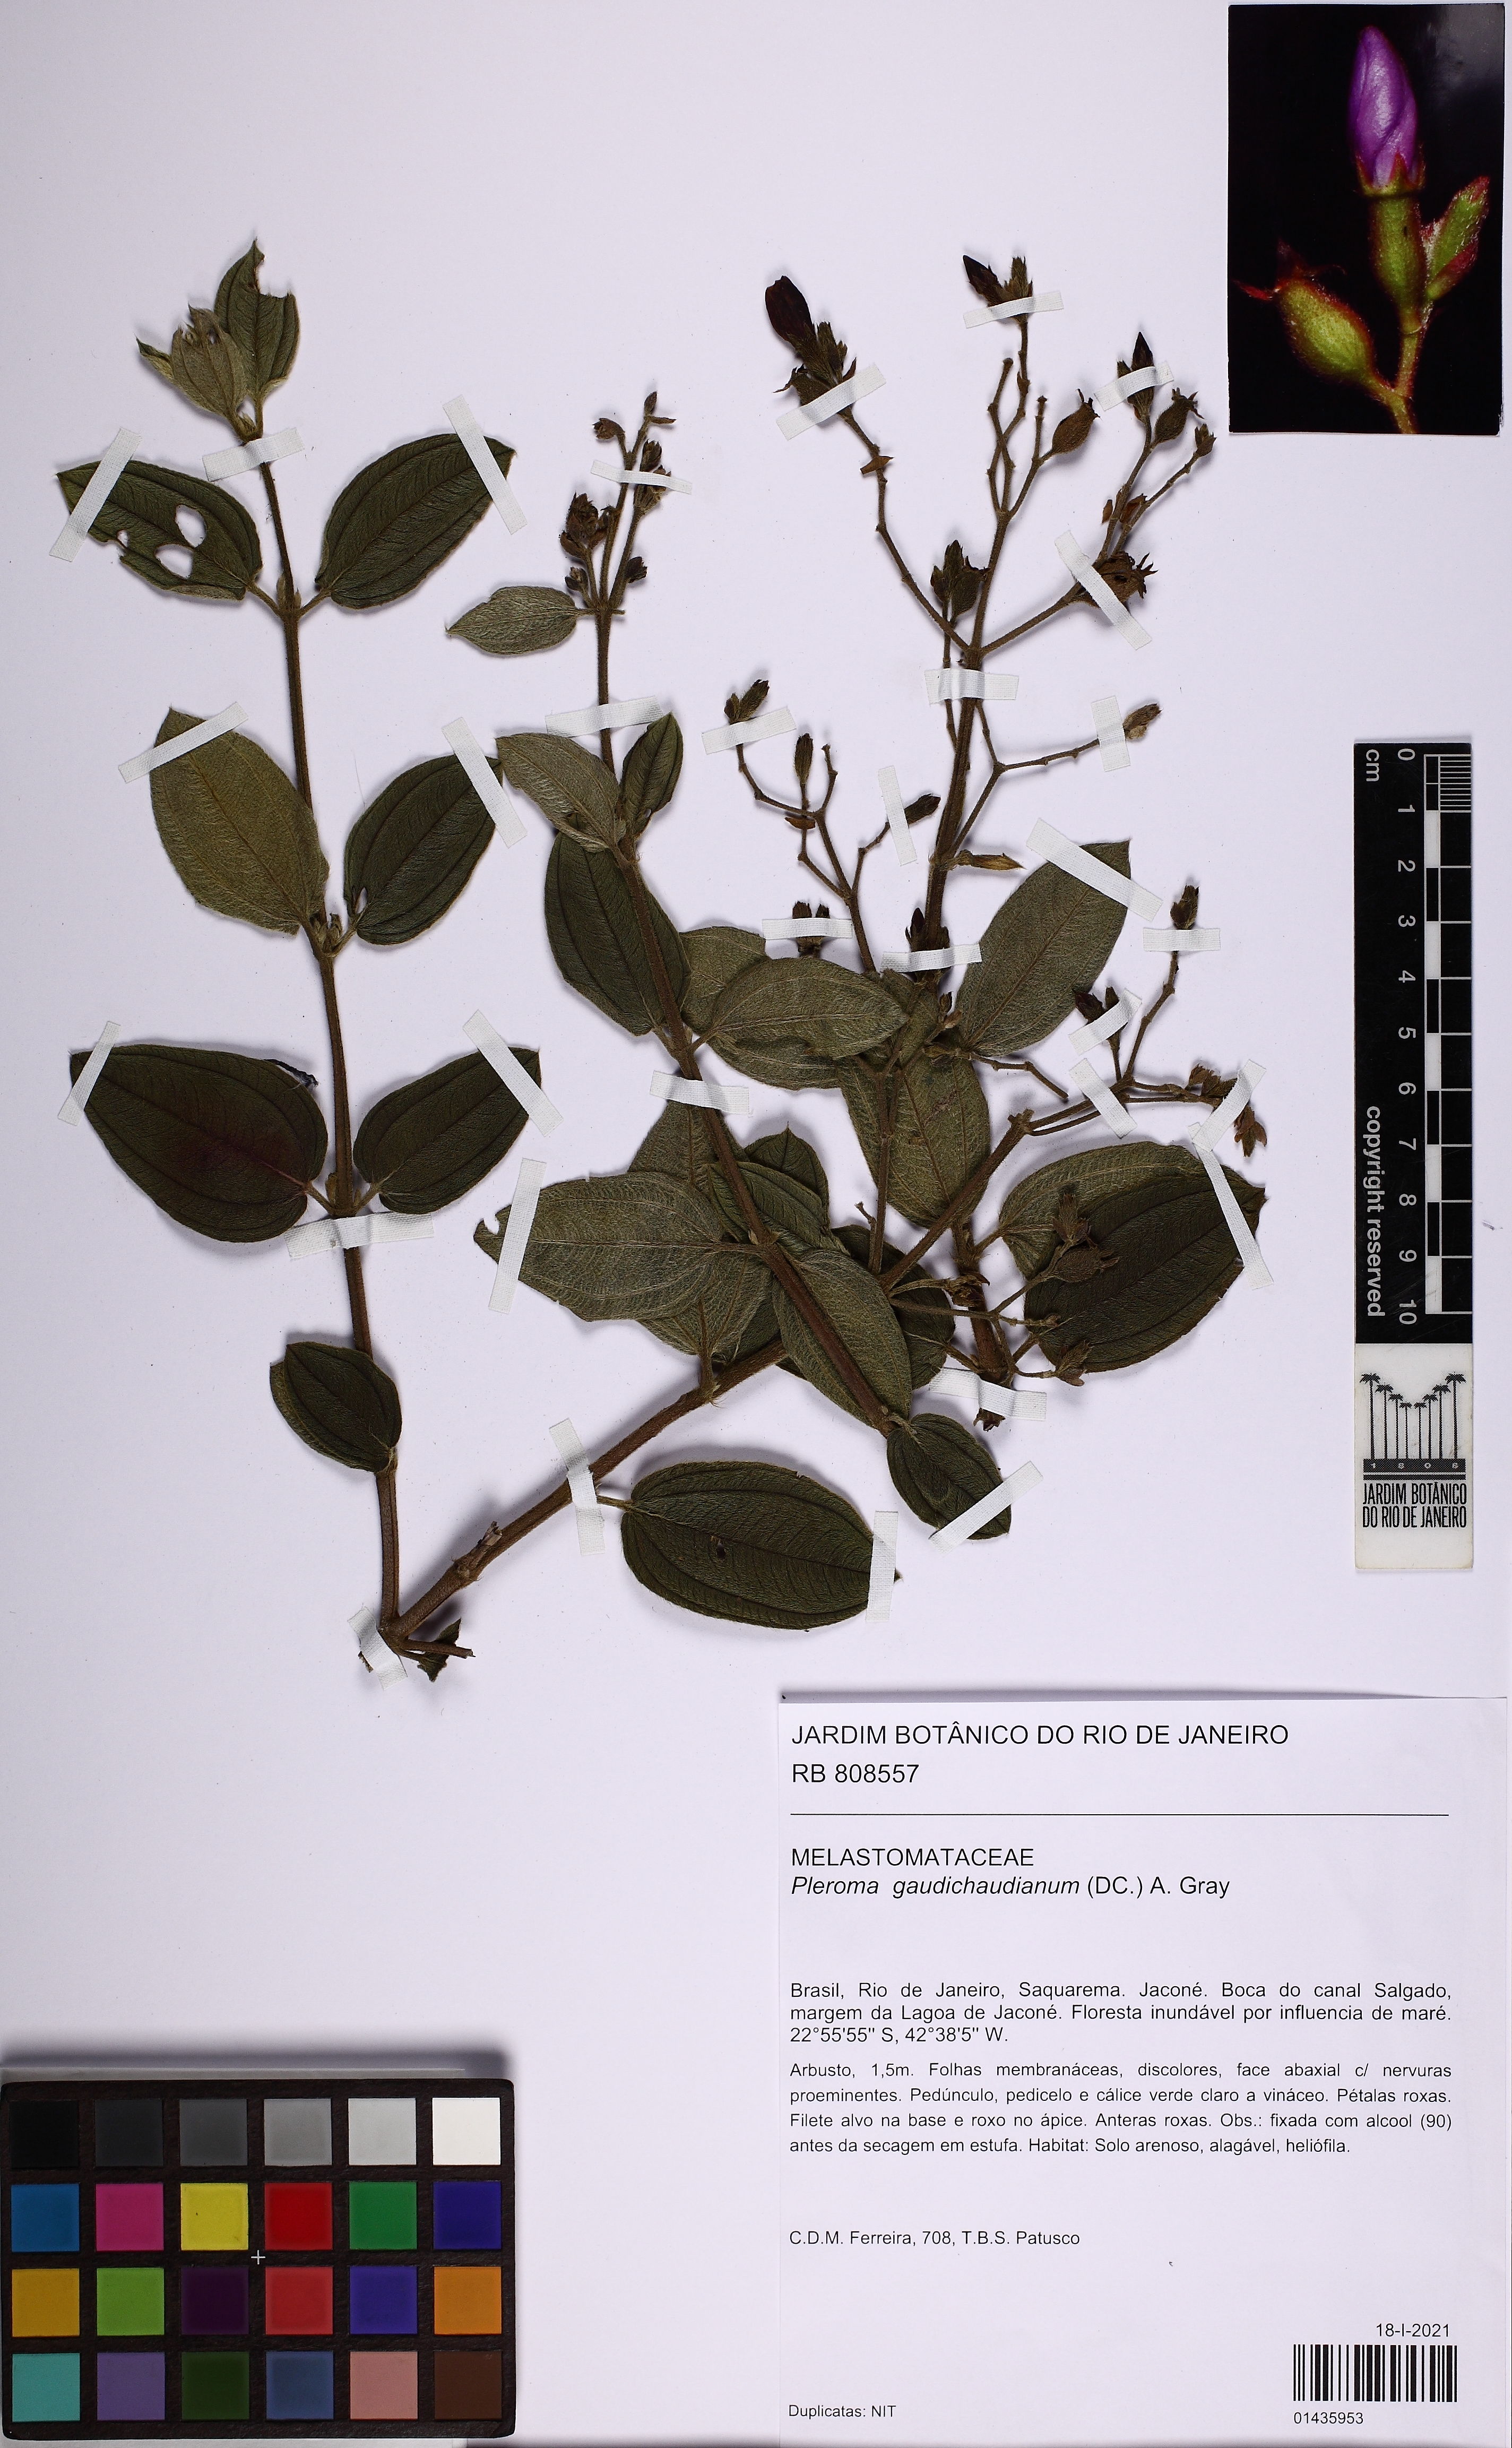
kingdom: Plantae
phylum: Tracheophyta
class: Magnoliopsida
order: Myrtales
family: Melastomataceae
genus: Pleroma
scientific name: Pleroma gaudichaudianum
